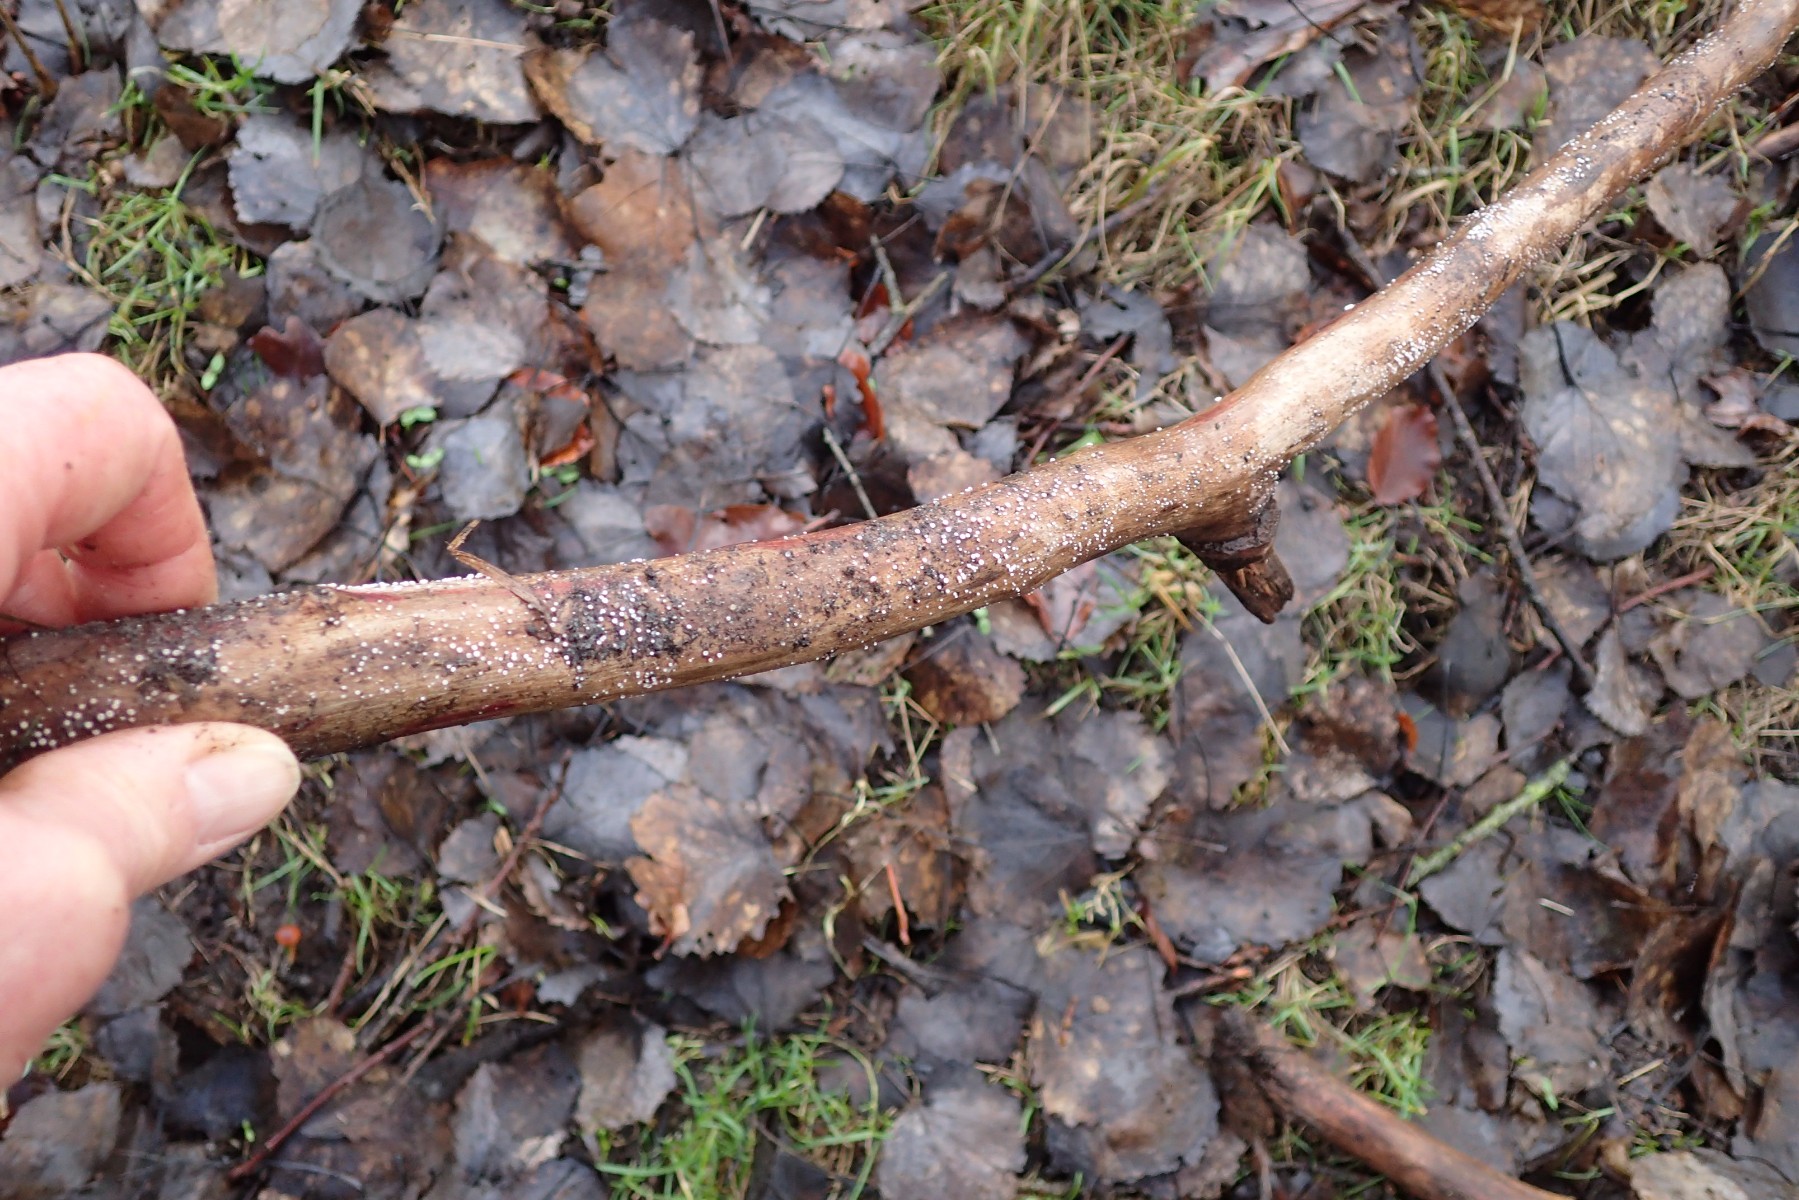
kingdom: Fungi
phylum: Basidiomycota
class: Agaricomycetes
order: Agaricales
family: Schizophyllaceae
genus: Schizophyllum
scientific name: Schizophyllum amplum
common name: poppel-hængeøre
